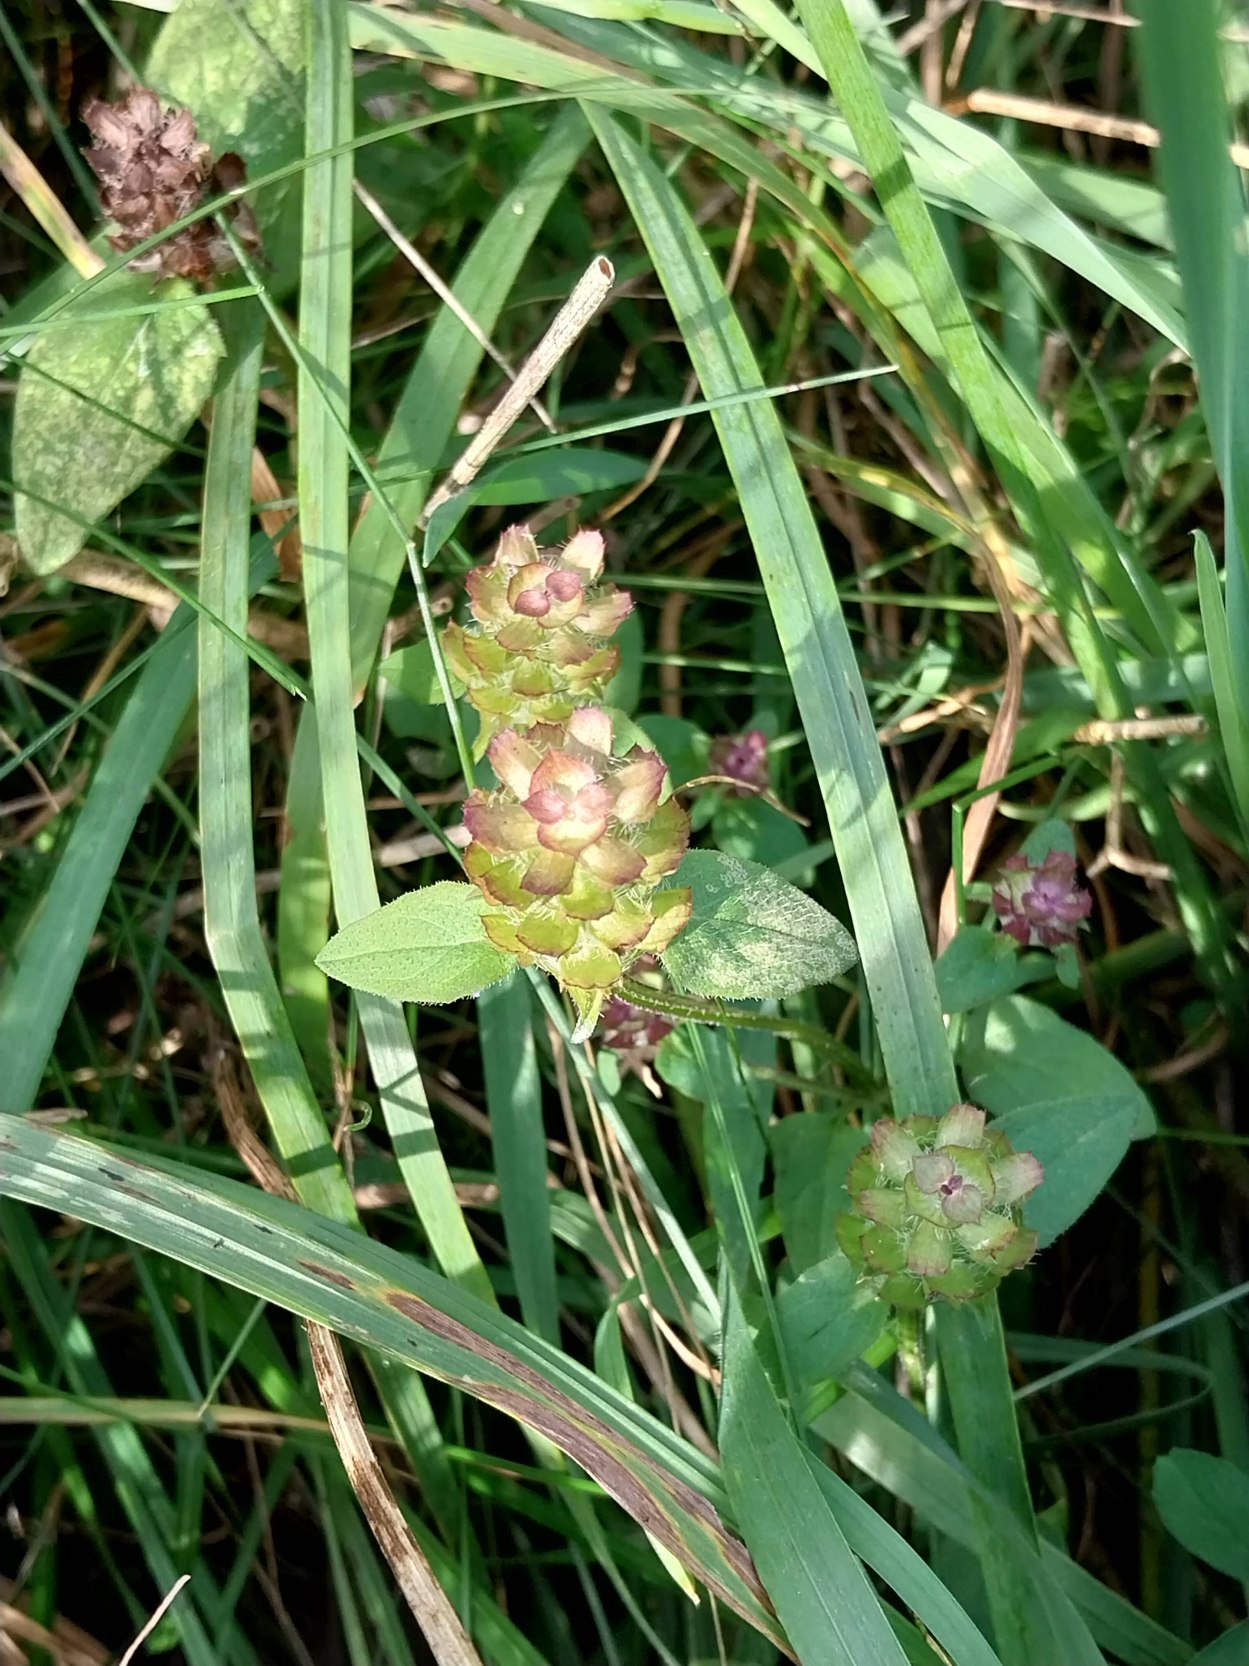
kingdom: Plantae
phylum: Tracheophyta
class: Magnoliopsida
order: Lamiales
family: Lamiaceae
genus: Prunella
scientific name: Prunella vulgaris
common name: Almindelig brunelle
